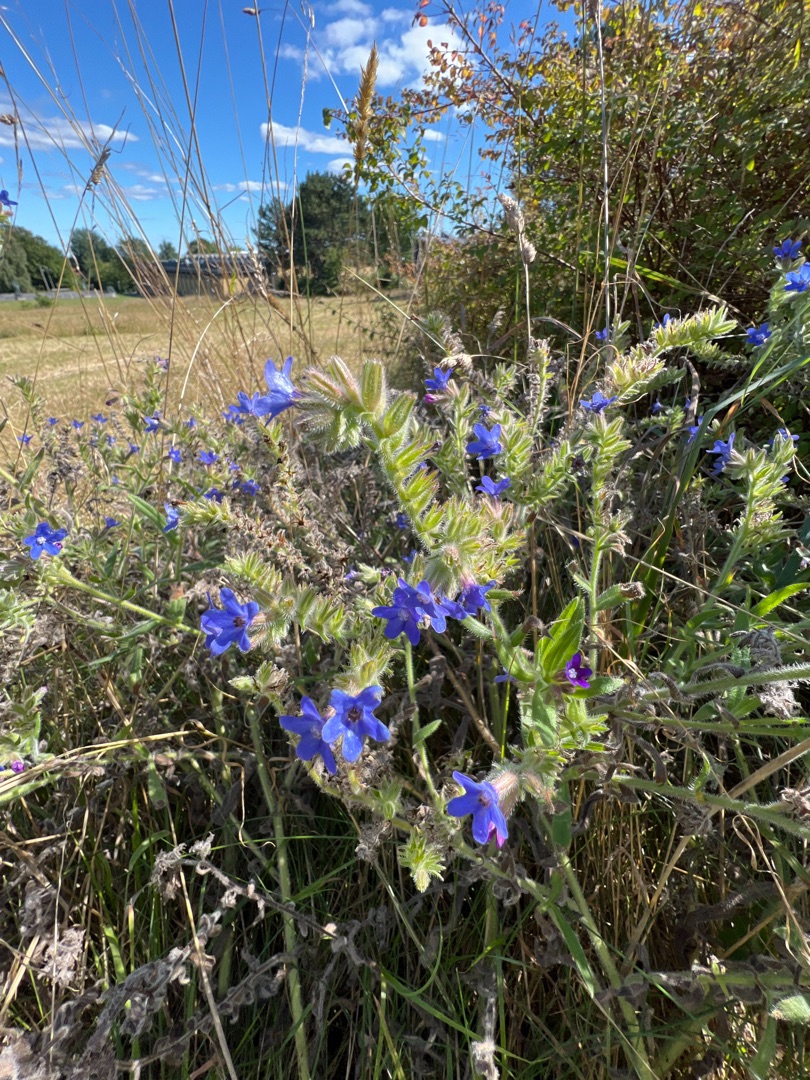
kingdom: Plantae
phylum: Tracheophyta
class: Magnoliopsida
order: Boraginales
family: Boraginaceae
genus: Anchusa
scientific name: Anchusa officinalis
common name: Læge-oksetunge
